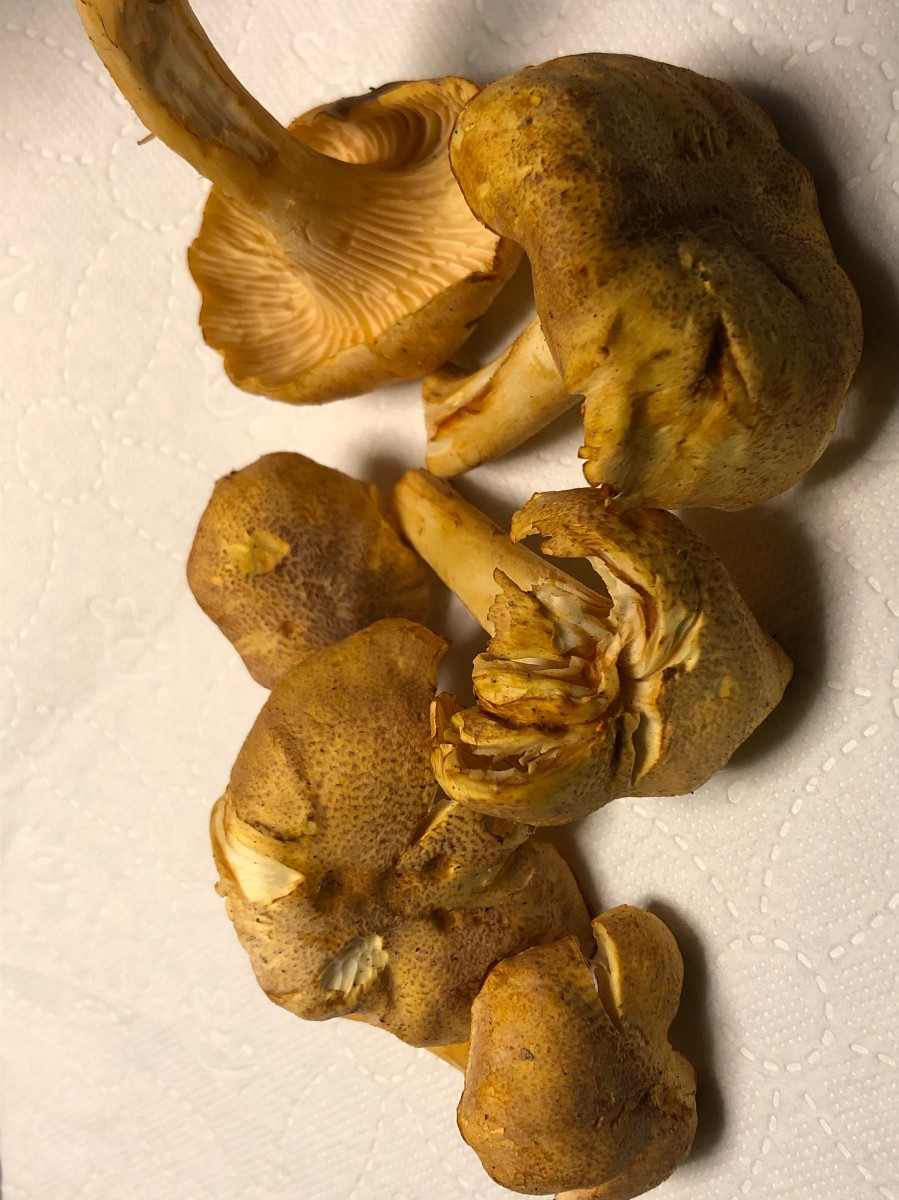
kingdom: Fungi
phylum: Basidiomycota
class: Agaricomycetes
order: Cantharellales
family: Hydnaceae
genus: Cantharellus
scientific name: Cantharellus amethysteus
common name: ametyst-kantarel
